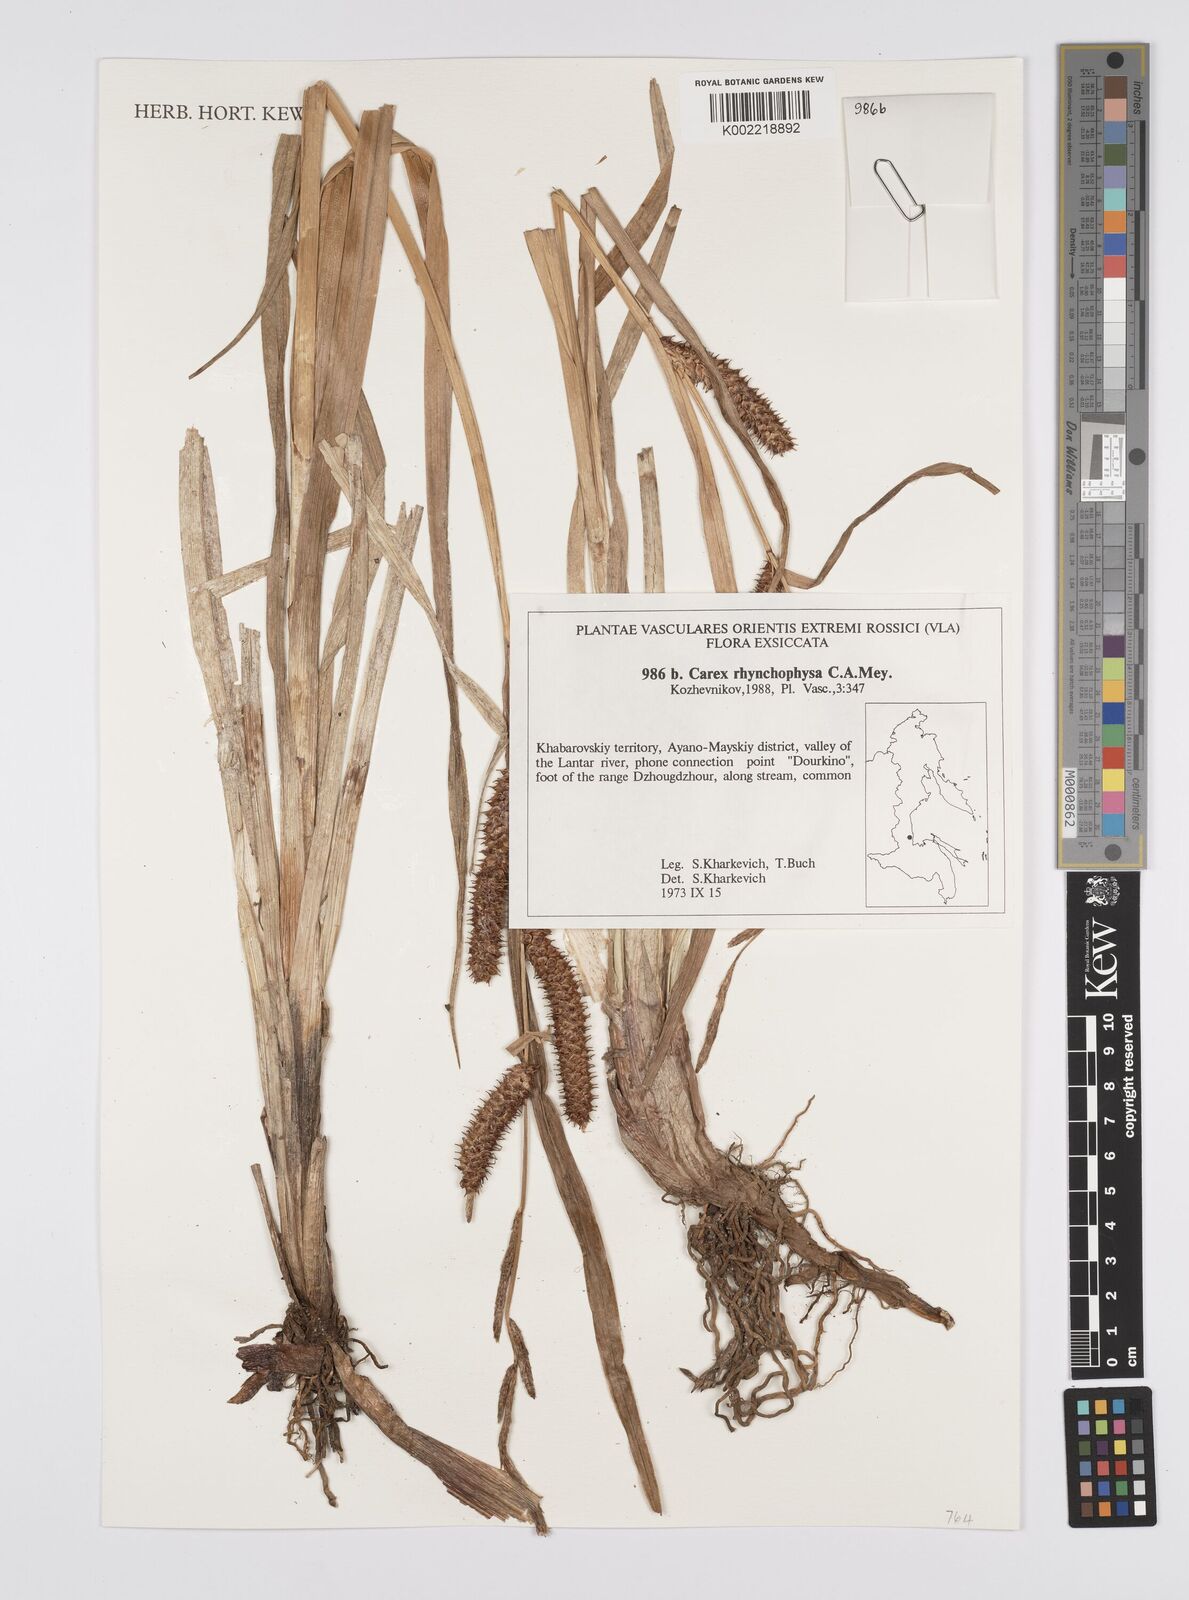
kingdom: Plantae
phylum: Tracheophyta
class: Liliopsida
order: Poales
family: Cyperaceae
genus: Carex
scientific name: Carex utriculata
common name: Beaked sedge
